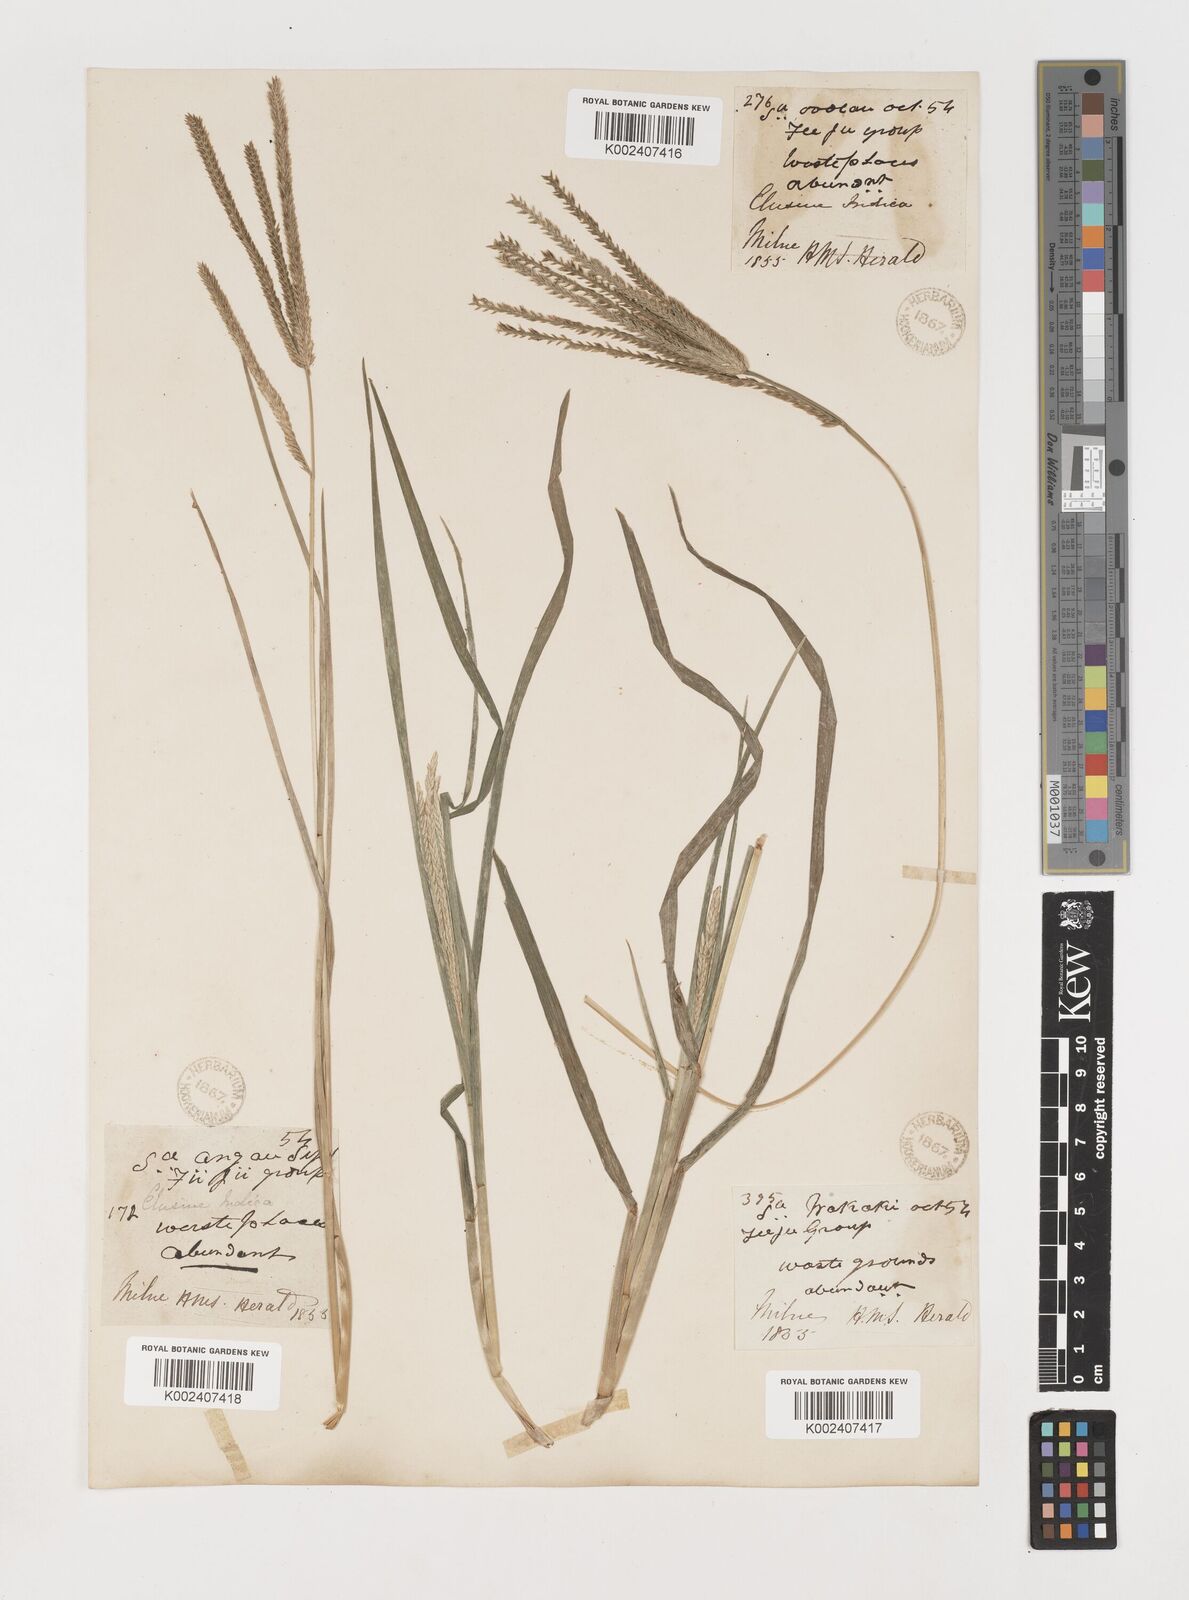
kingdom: Plantae
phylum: Tracheophyta
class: Liliopsida
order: Poales
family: Poaceae
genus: Eleusine
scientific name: Eleusine indica
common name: Yard-grass
